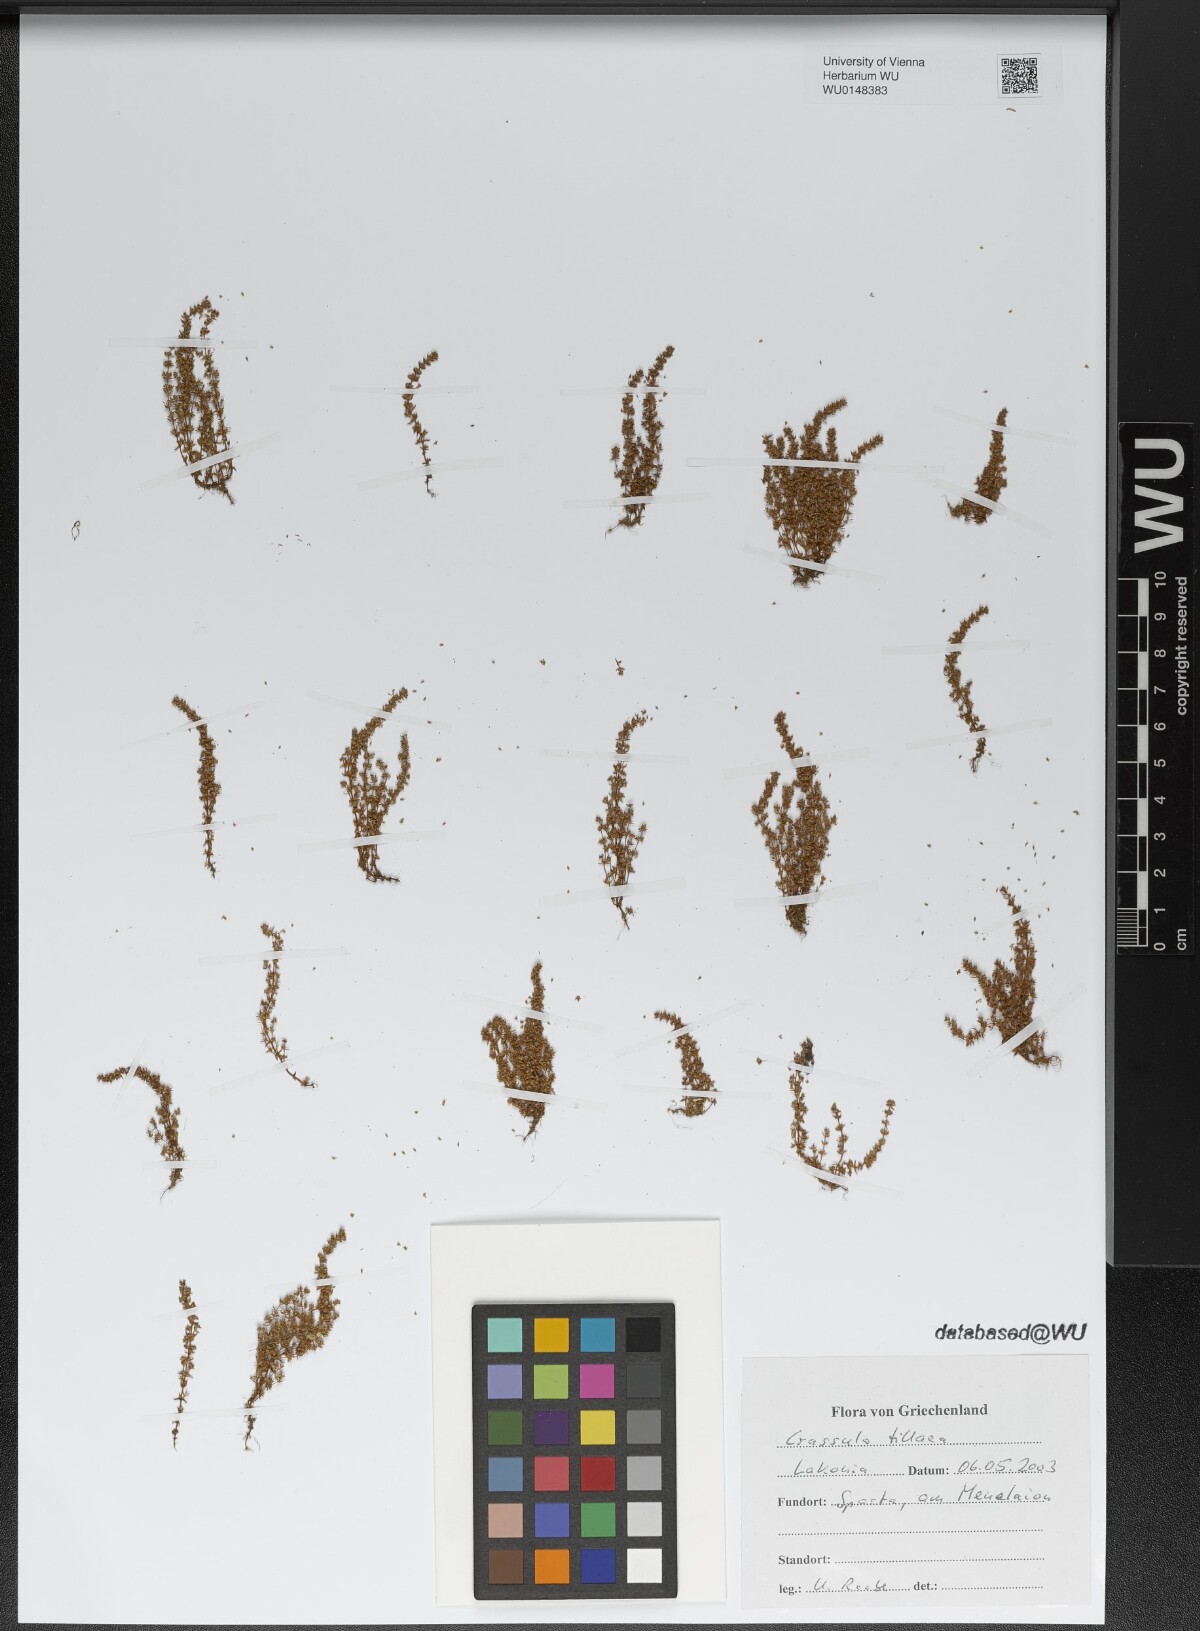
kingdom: Plantae
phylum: Tracheophyta
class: Magnoliopsida
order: Saxifragales
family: Crassulaceae
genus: Crassula
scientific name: Crassula tillaea
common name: Mossy stonecrop
